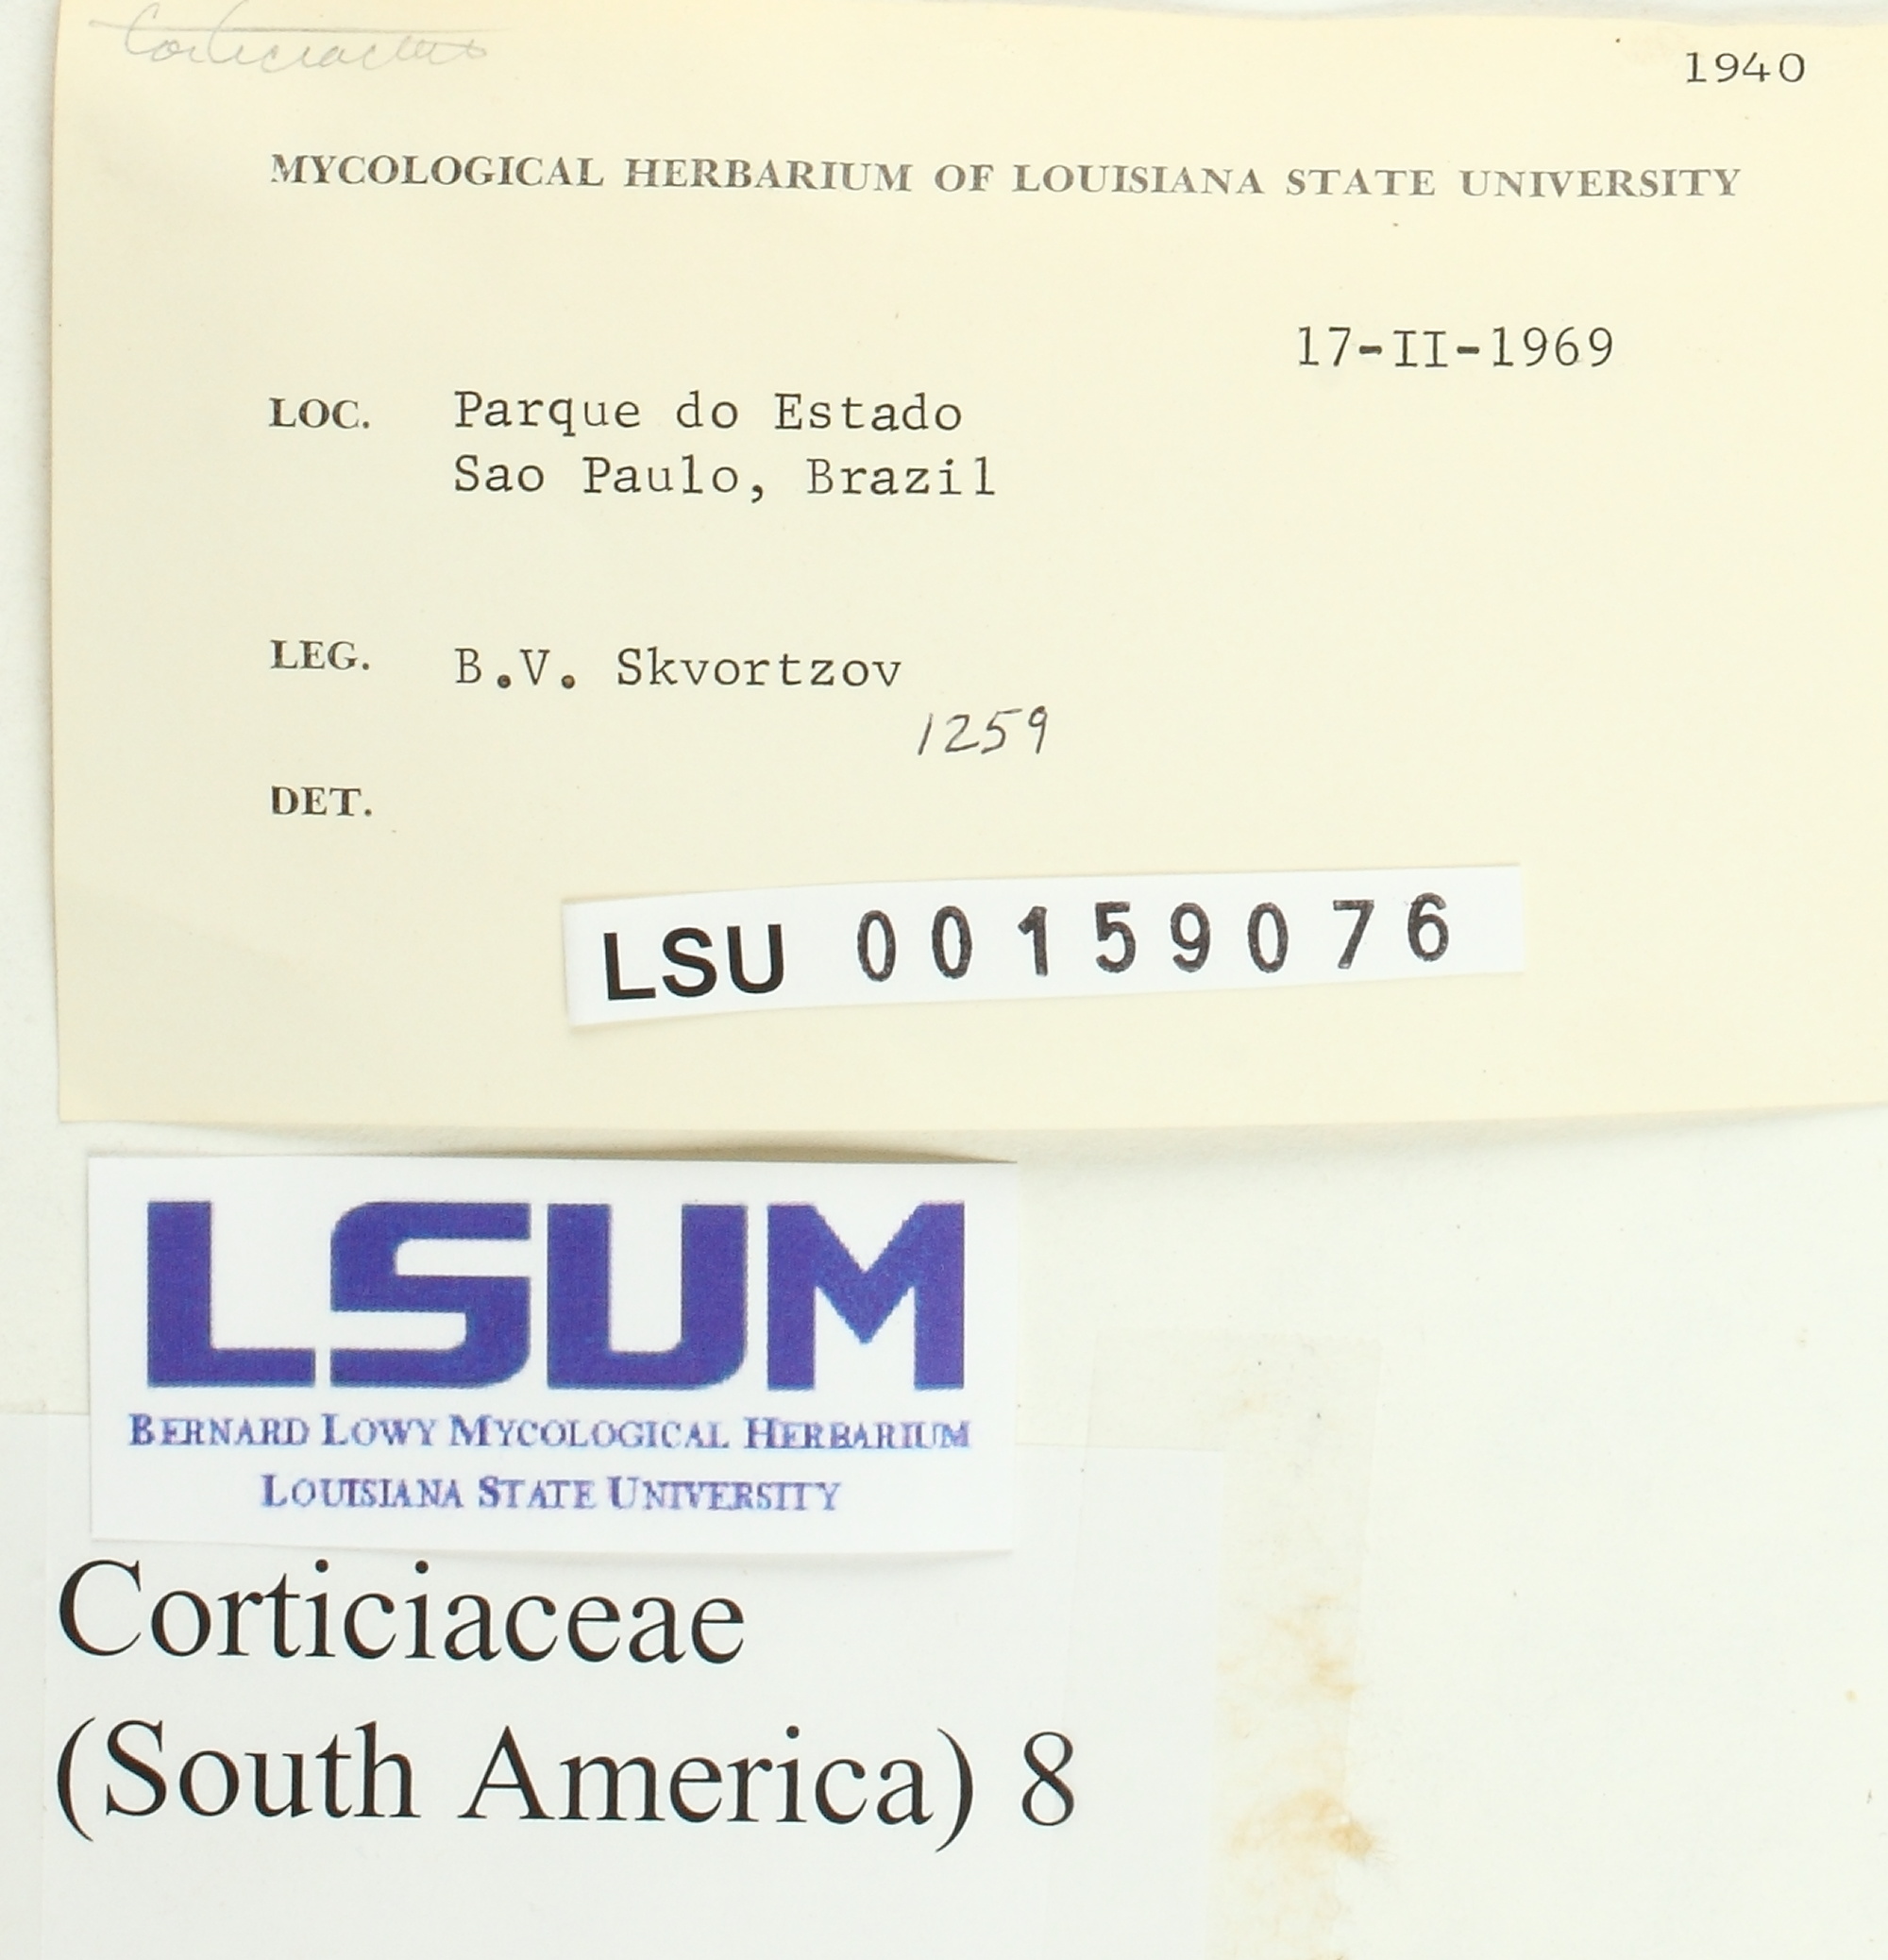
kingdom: Fungi
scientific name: Fungi
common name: Fungi
